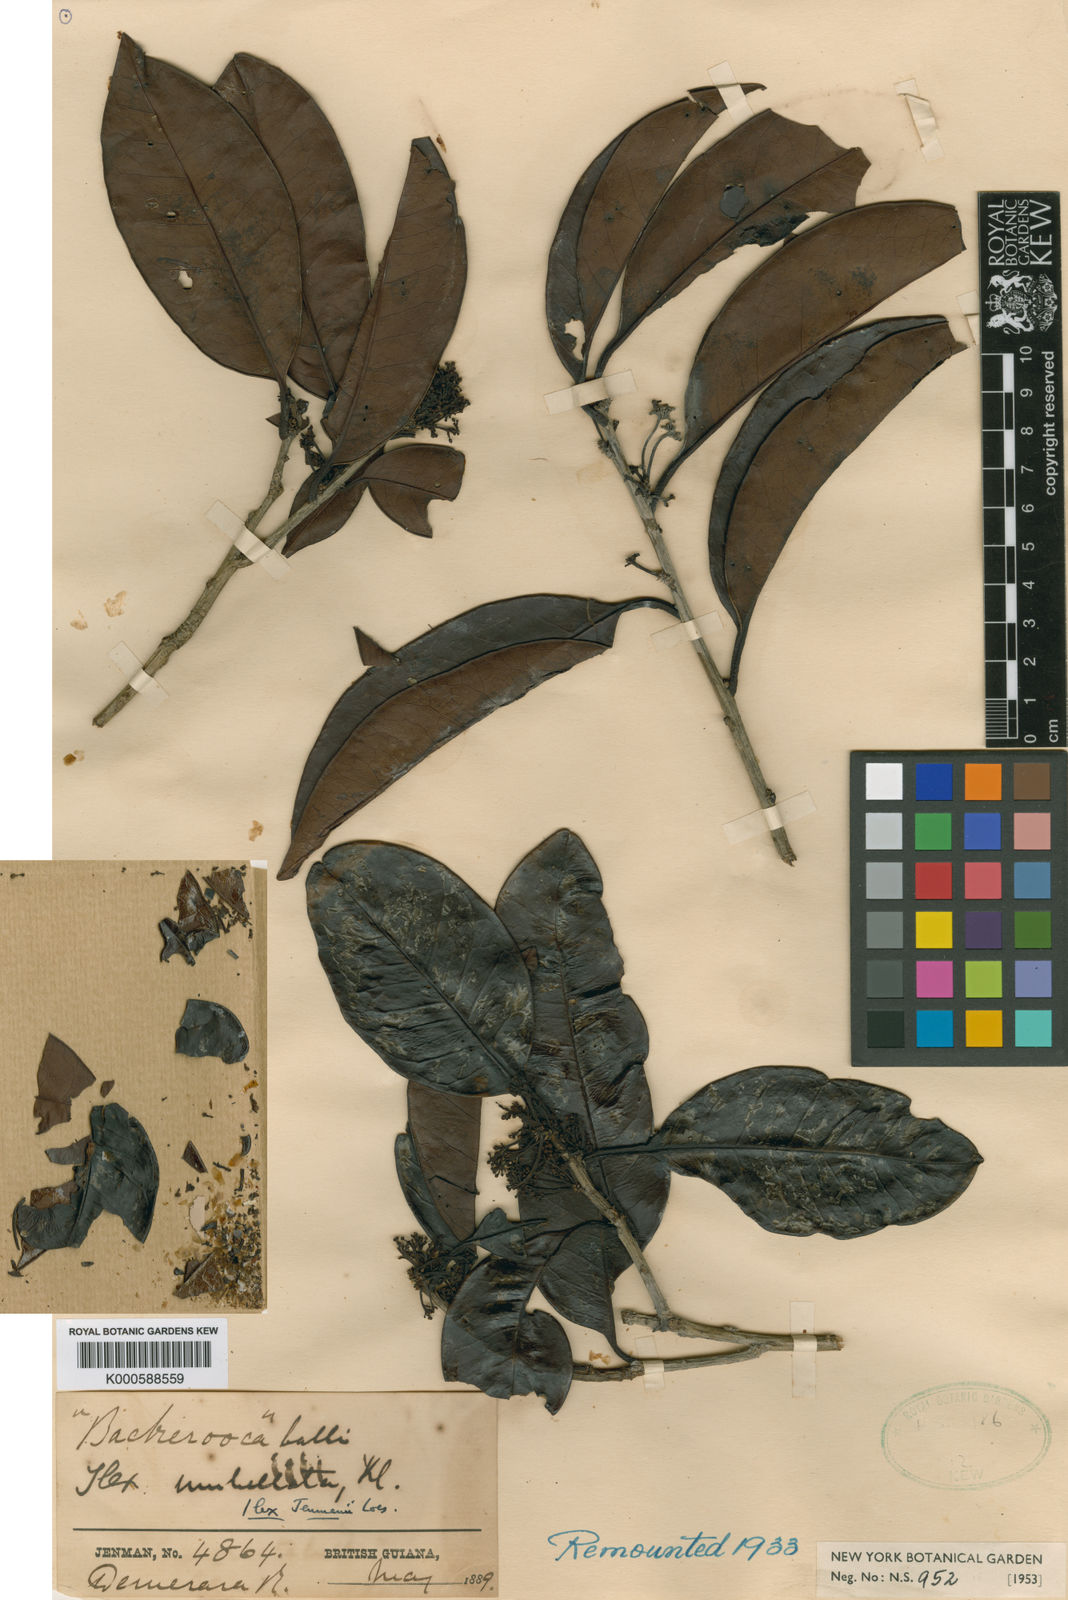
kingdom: Plantae
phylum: Tracheophyta
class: Magnoliopsida
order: Aquifoliales
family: Aquifoliaceae
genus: Ilex
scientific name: Ilex jenmanii
